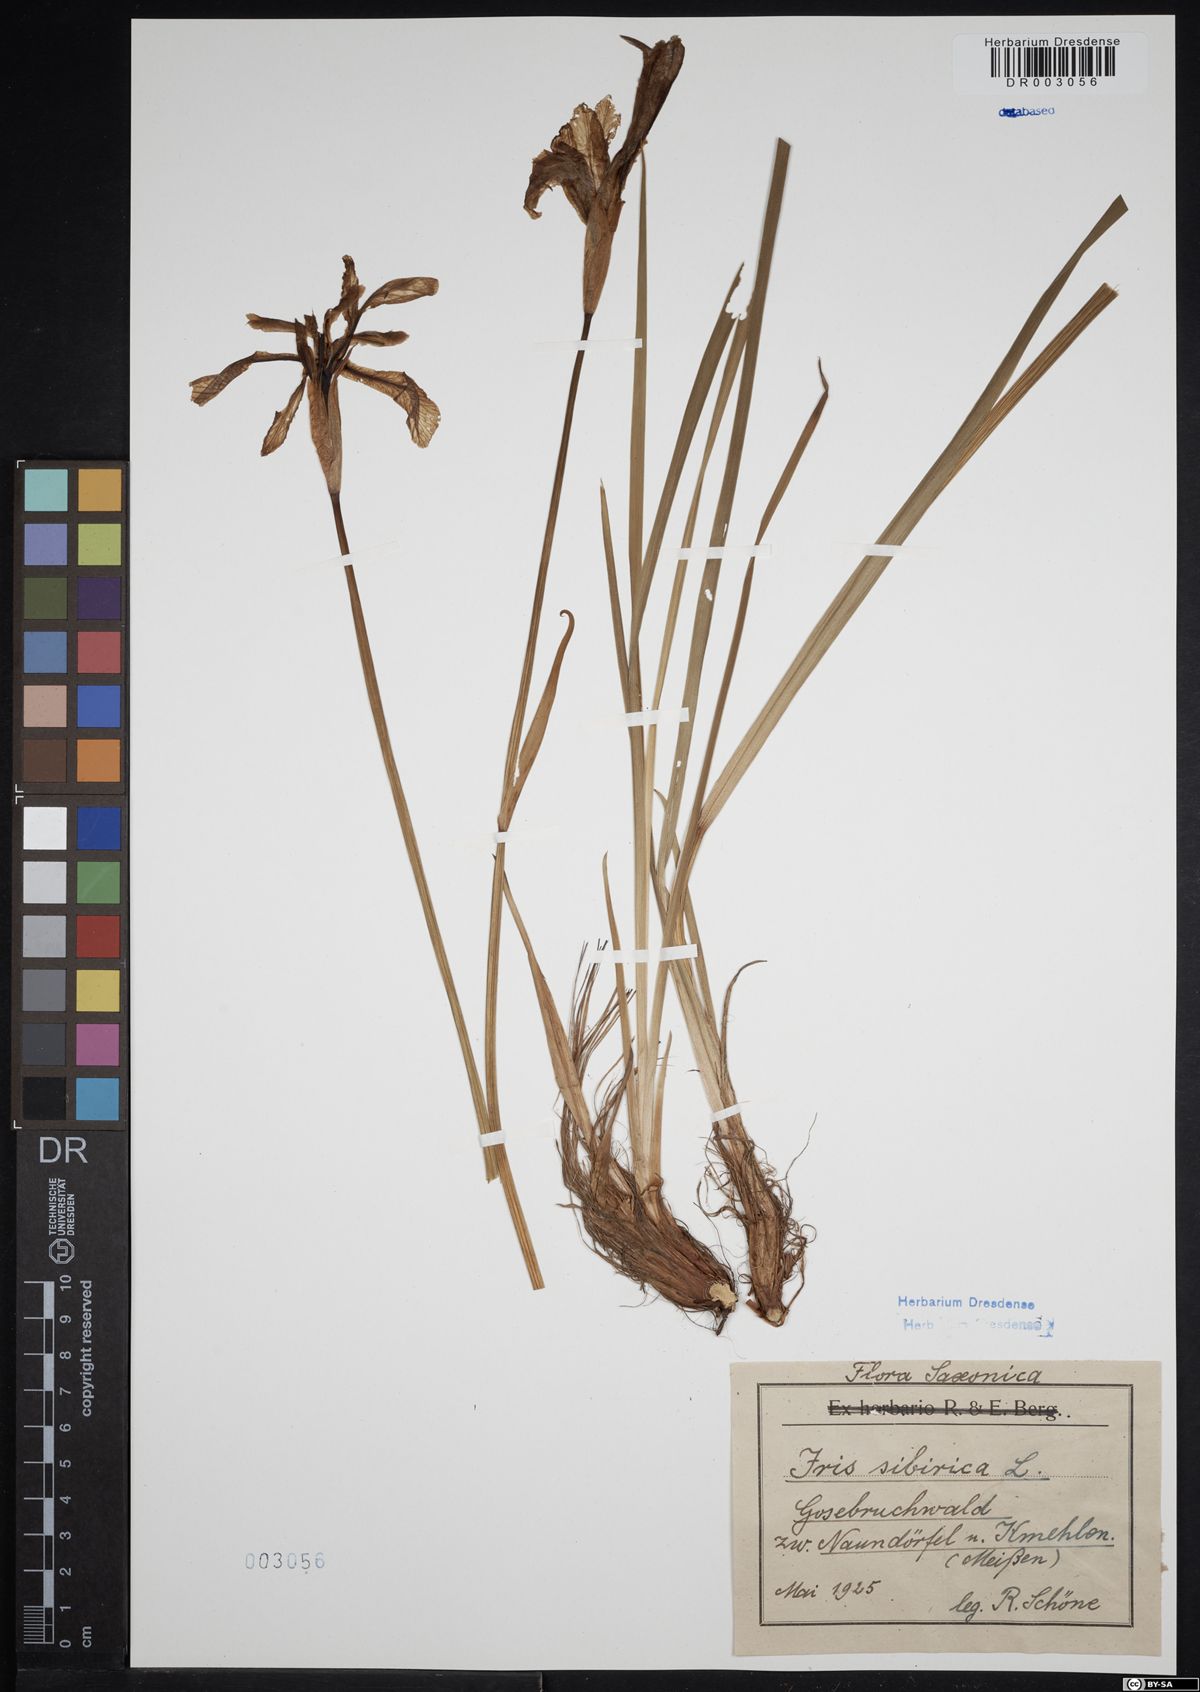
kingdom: Plantae
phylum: Tracheophyta
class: Liliopsida
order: Asparagales
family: Iridaceae
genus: Iris
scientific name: Iris sibirica
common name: Siberian iris
